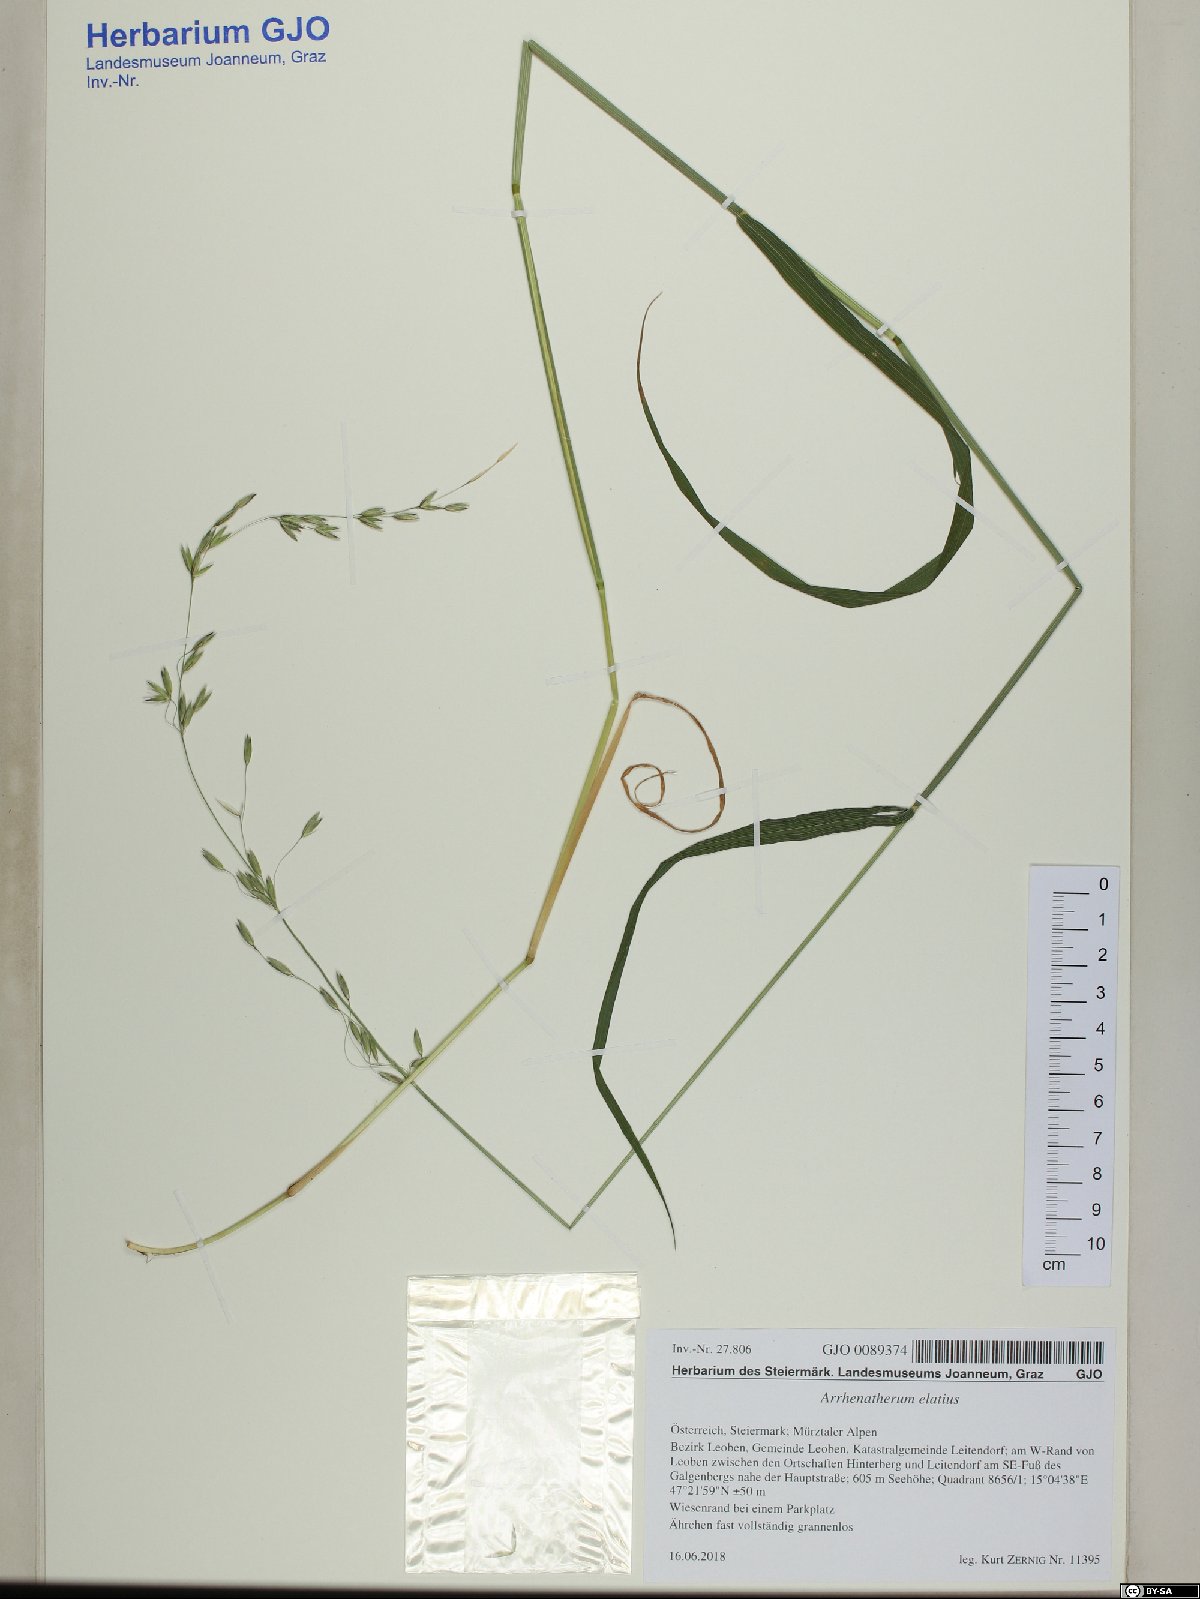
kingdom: Plantae
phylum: Tracheophyta
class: Liliopsida
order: Poales
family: Poaceae
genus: Arrhenatherum
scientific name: Arrhenatherum elatius
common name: Tall oatgrass
